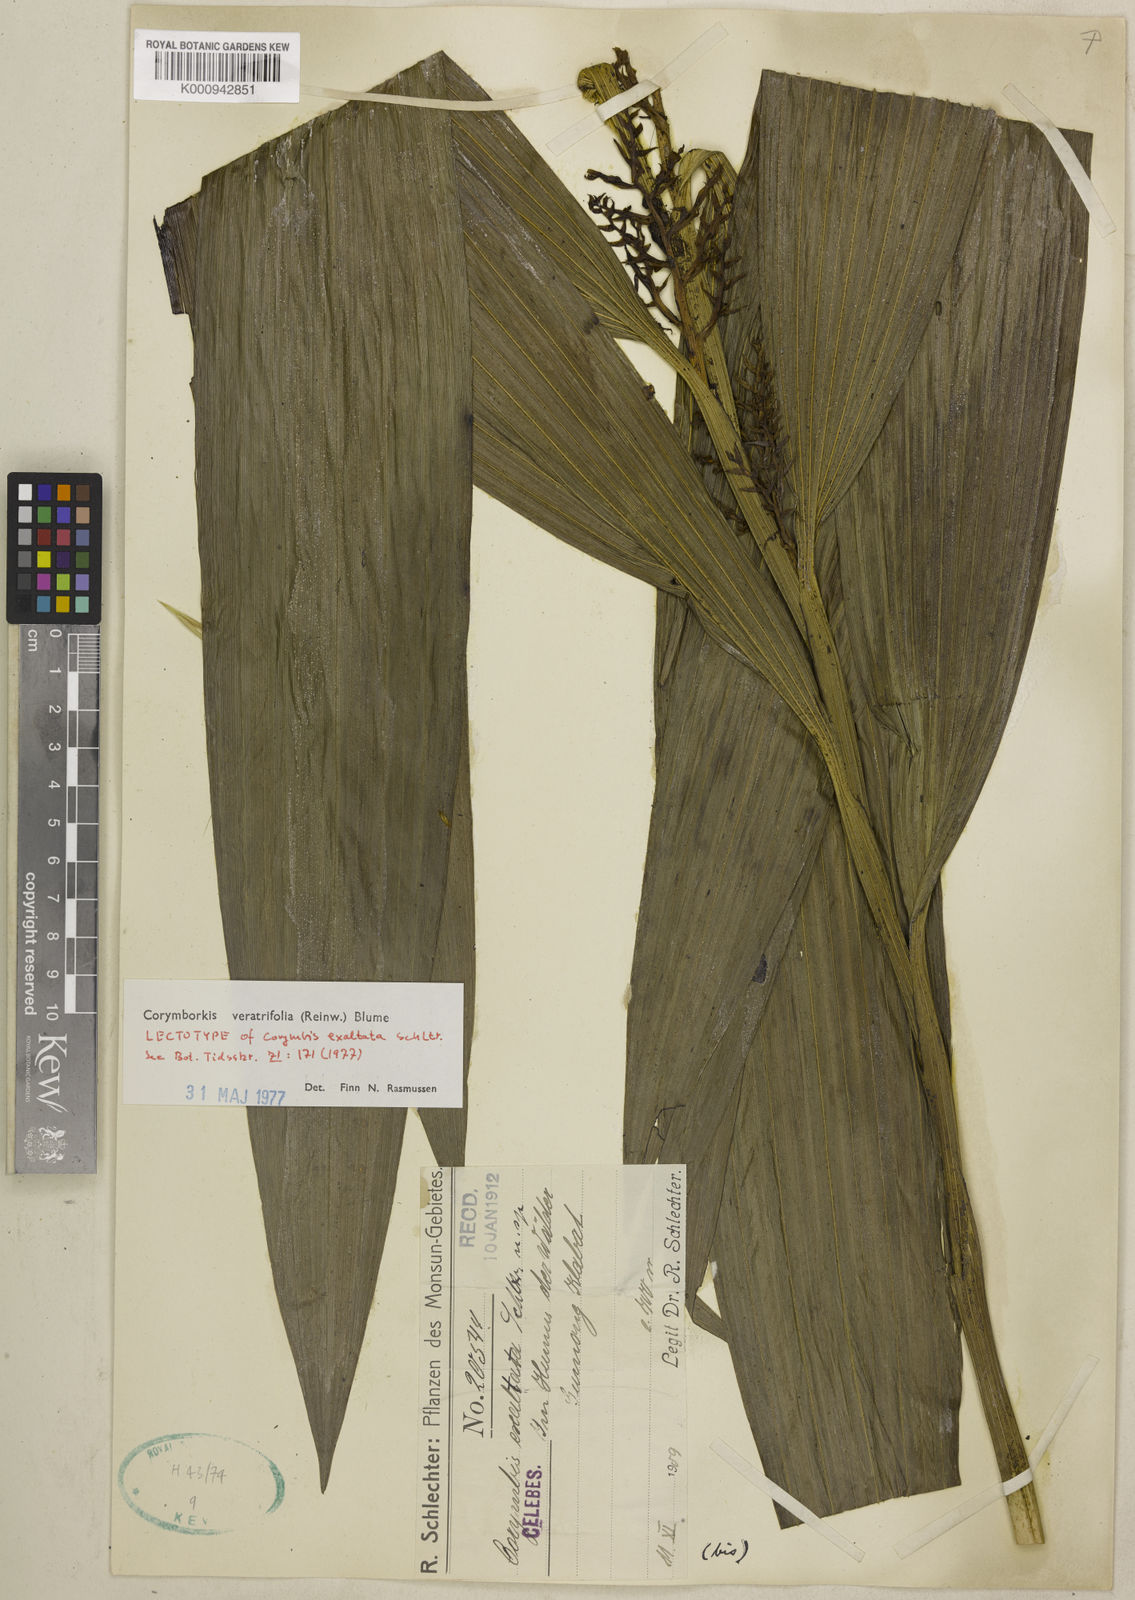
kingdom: Plantae
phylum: Tracheophyta
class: Liliopsida
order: Asparagales
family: Orchidaceae
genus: Corymborkis
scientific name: Corymborkis veratrifolia
